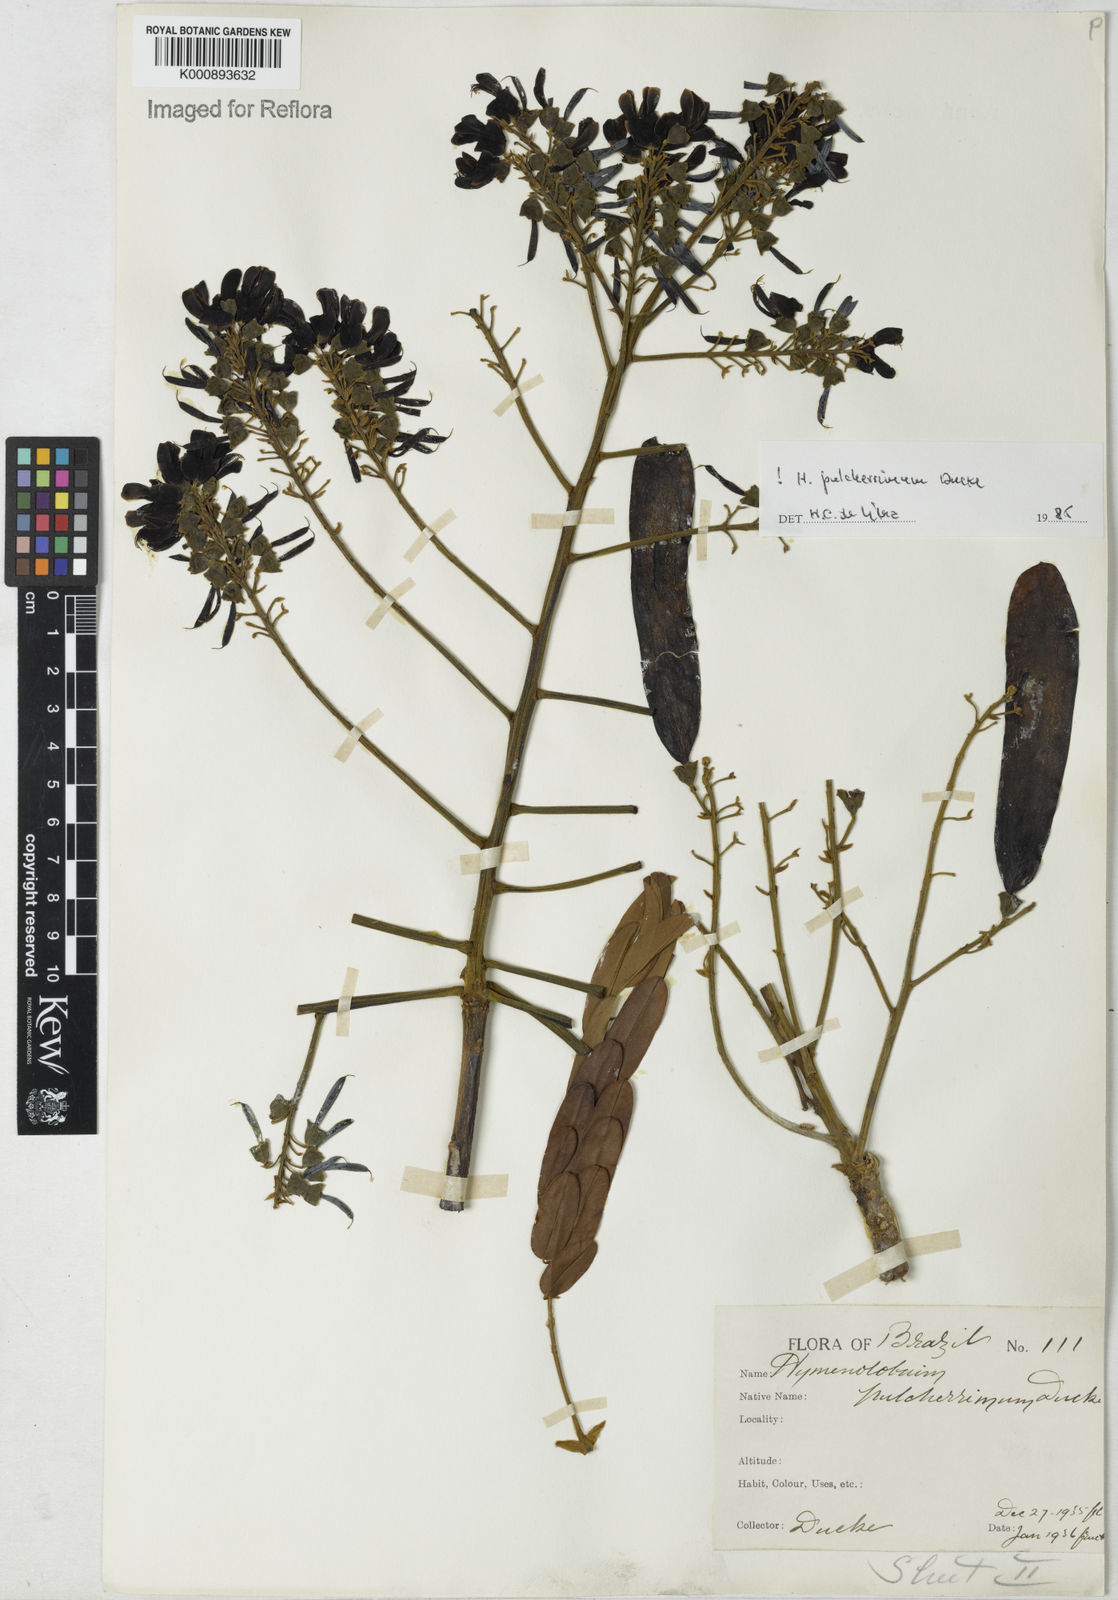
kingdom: Plantae
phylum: Tracheophyta
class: Magnoliopsida
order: Fabales
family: Fabaceae
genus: Hymenolobium
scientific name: Hymenolobium pulcherrimum
